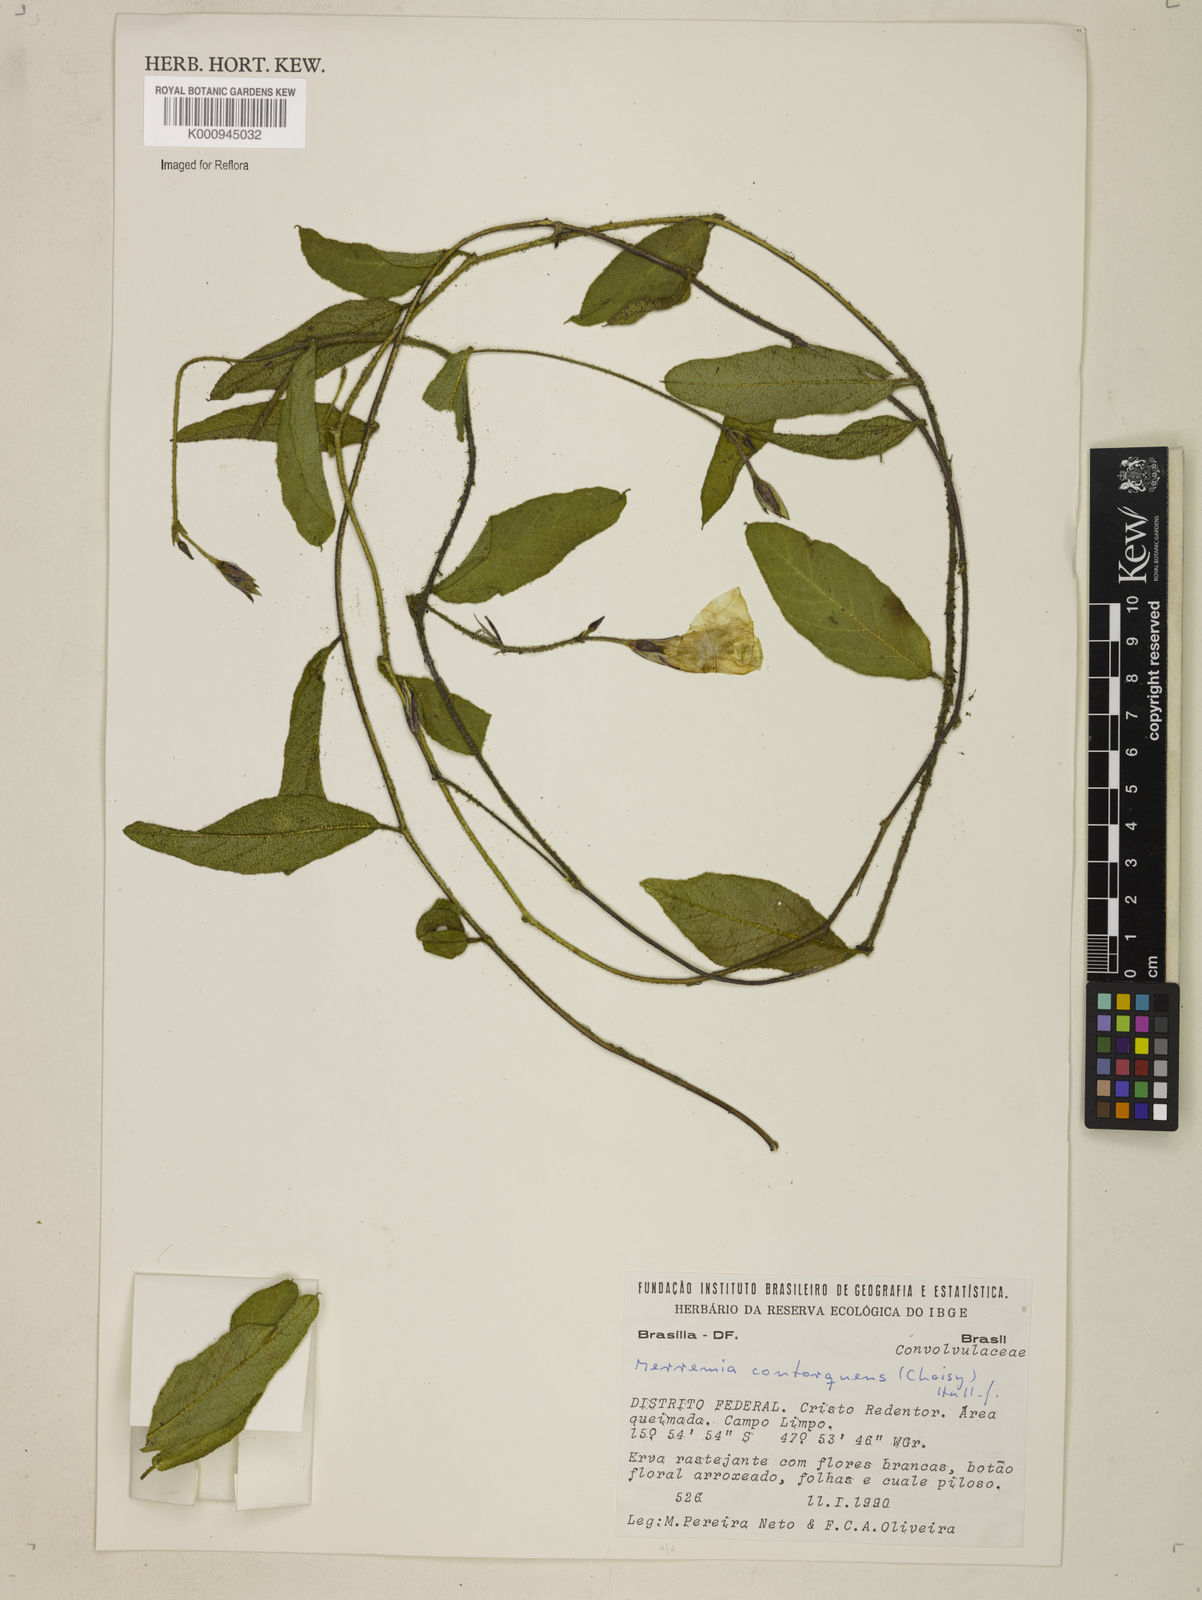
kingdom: Plantae
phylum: Tracheophyta
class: Magnoliopsida
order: Solanales
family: Convolvulaceae
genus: Distimake
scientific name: Distimake contorquens
